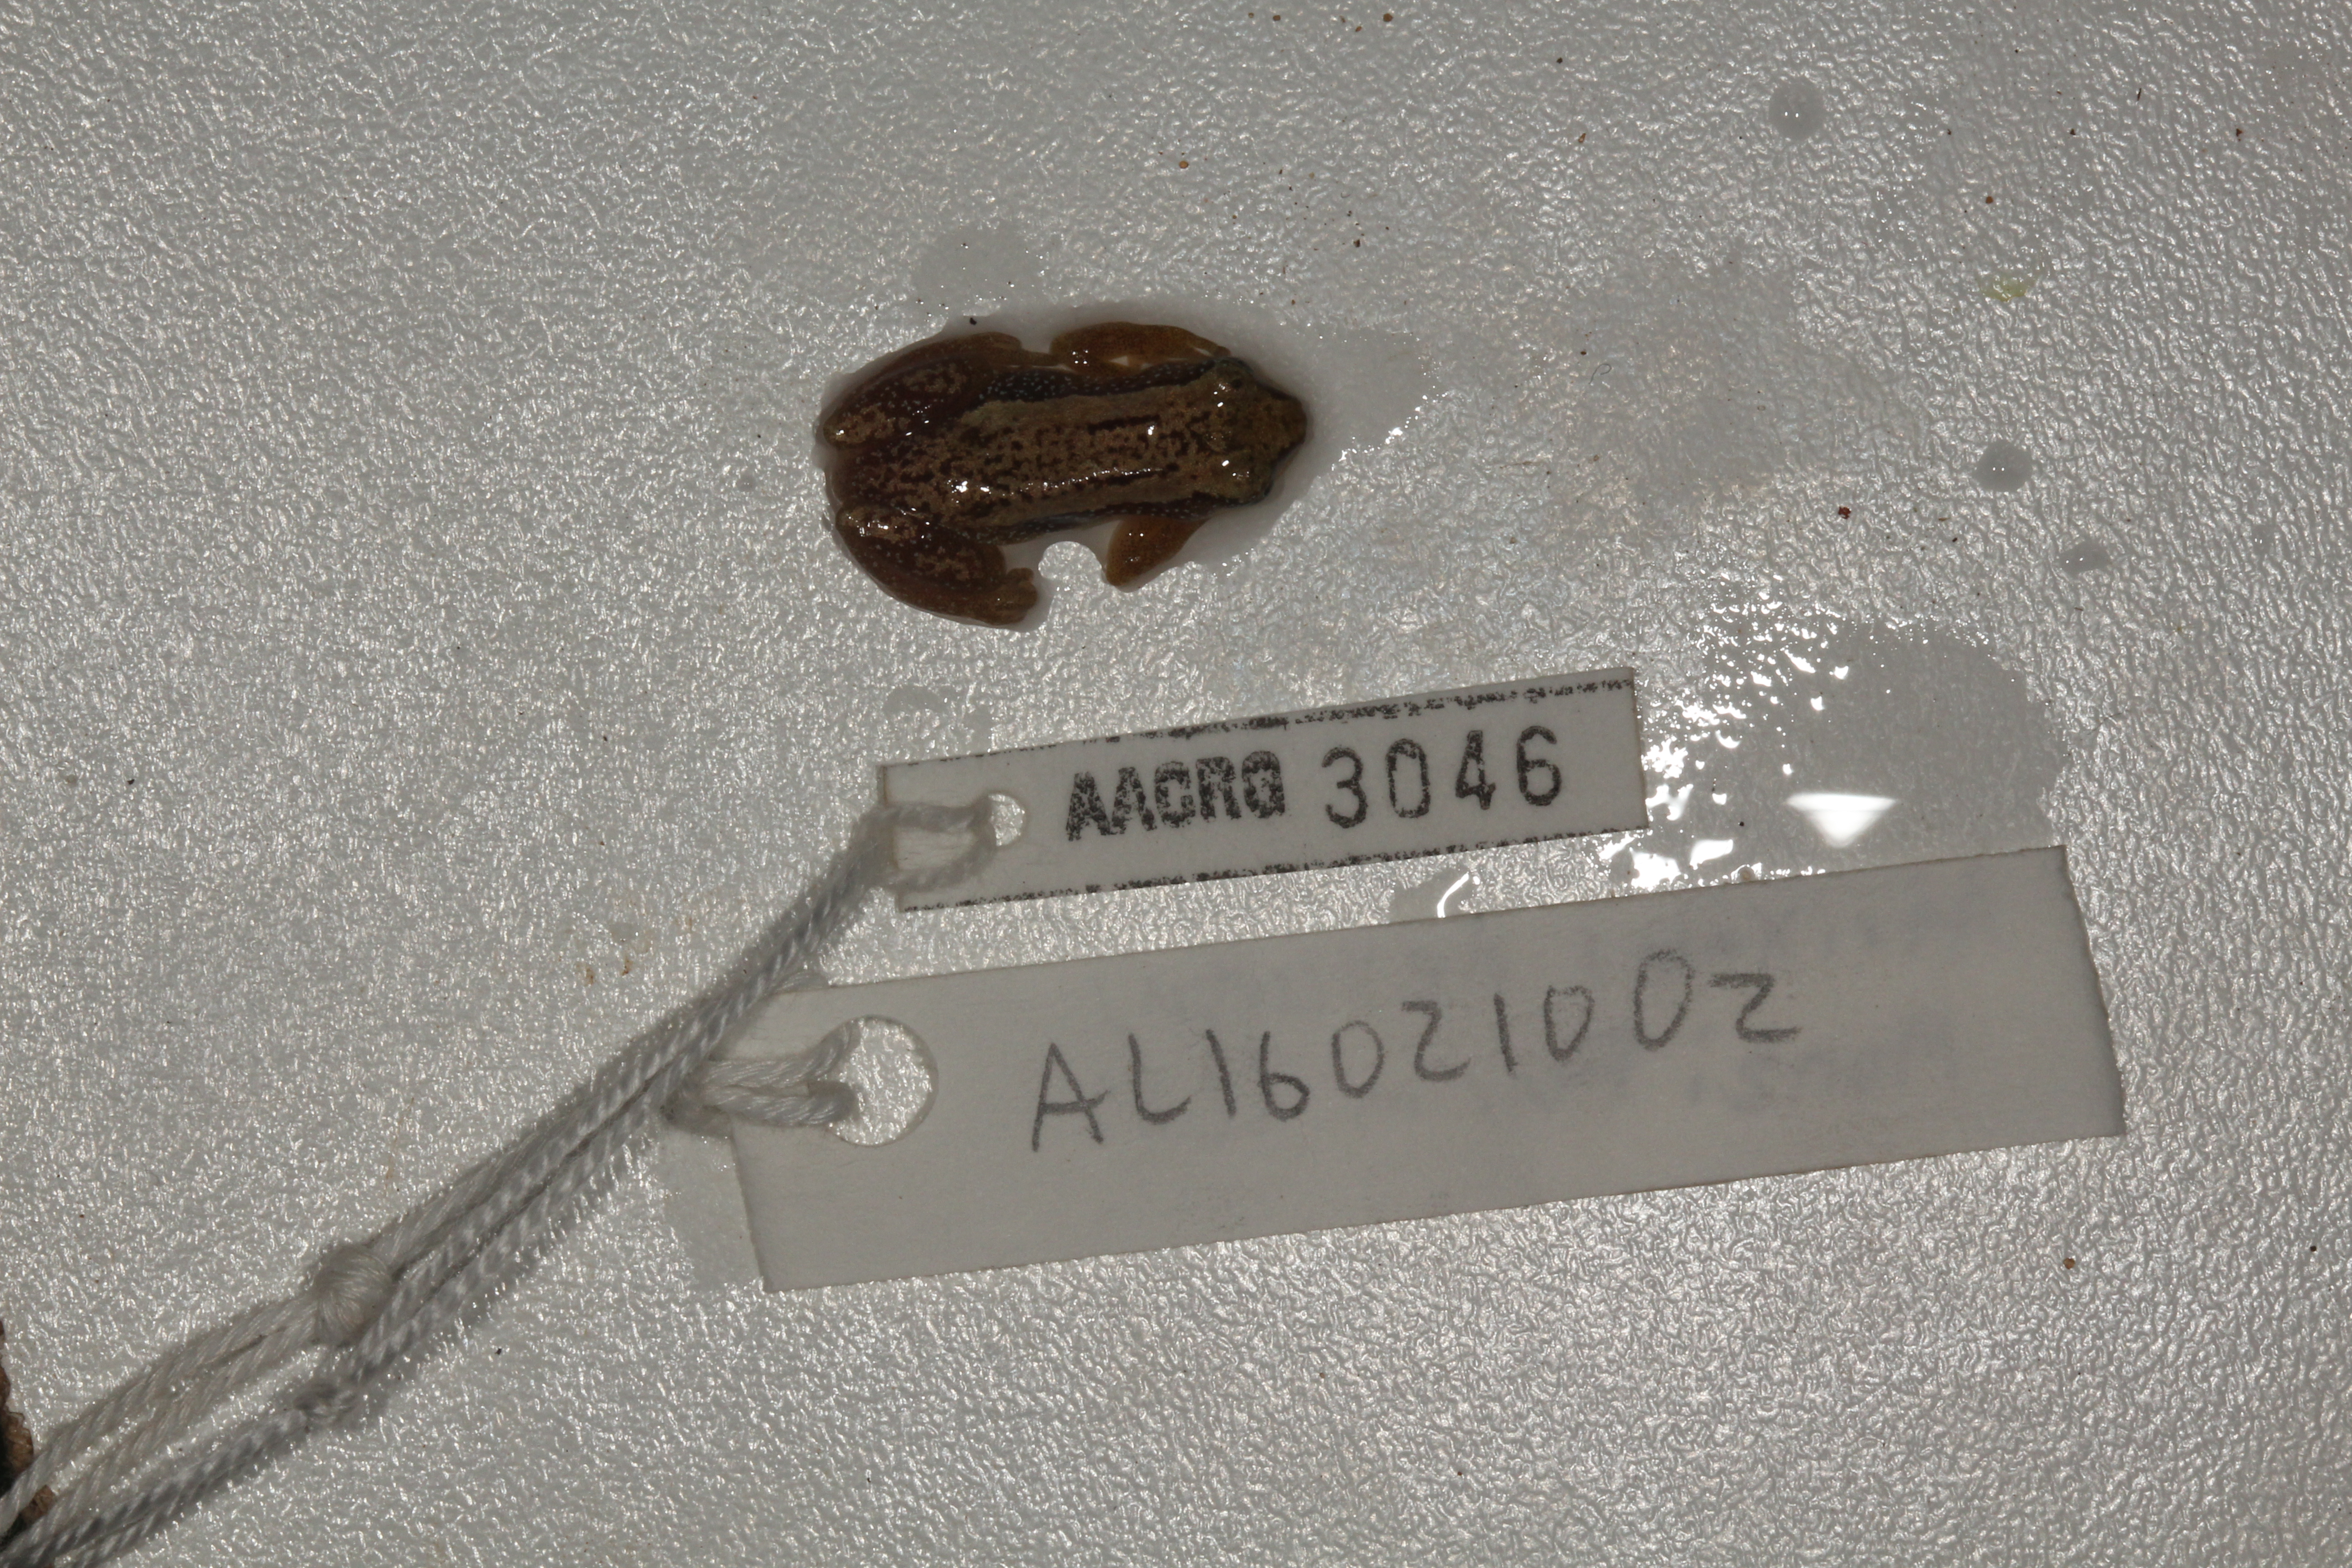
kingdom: Animalia
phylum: Chordata
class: Amphibia
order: Anura
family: Hyperoliidae
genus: Afrixalus
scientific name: Afrixalus delicatus
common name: Delicate leaf-folding frog
